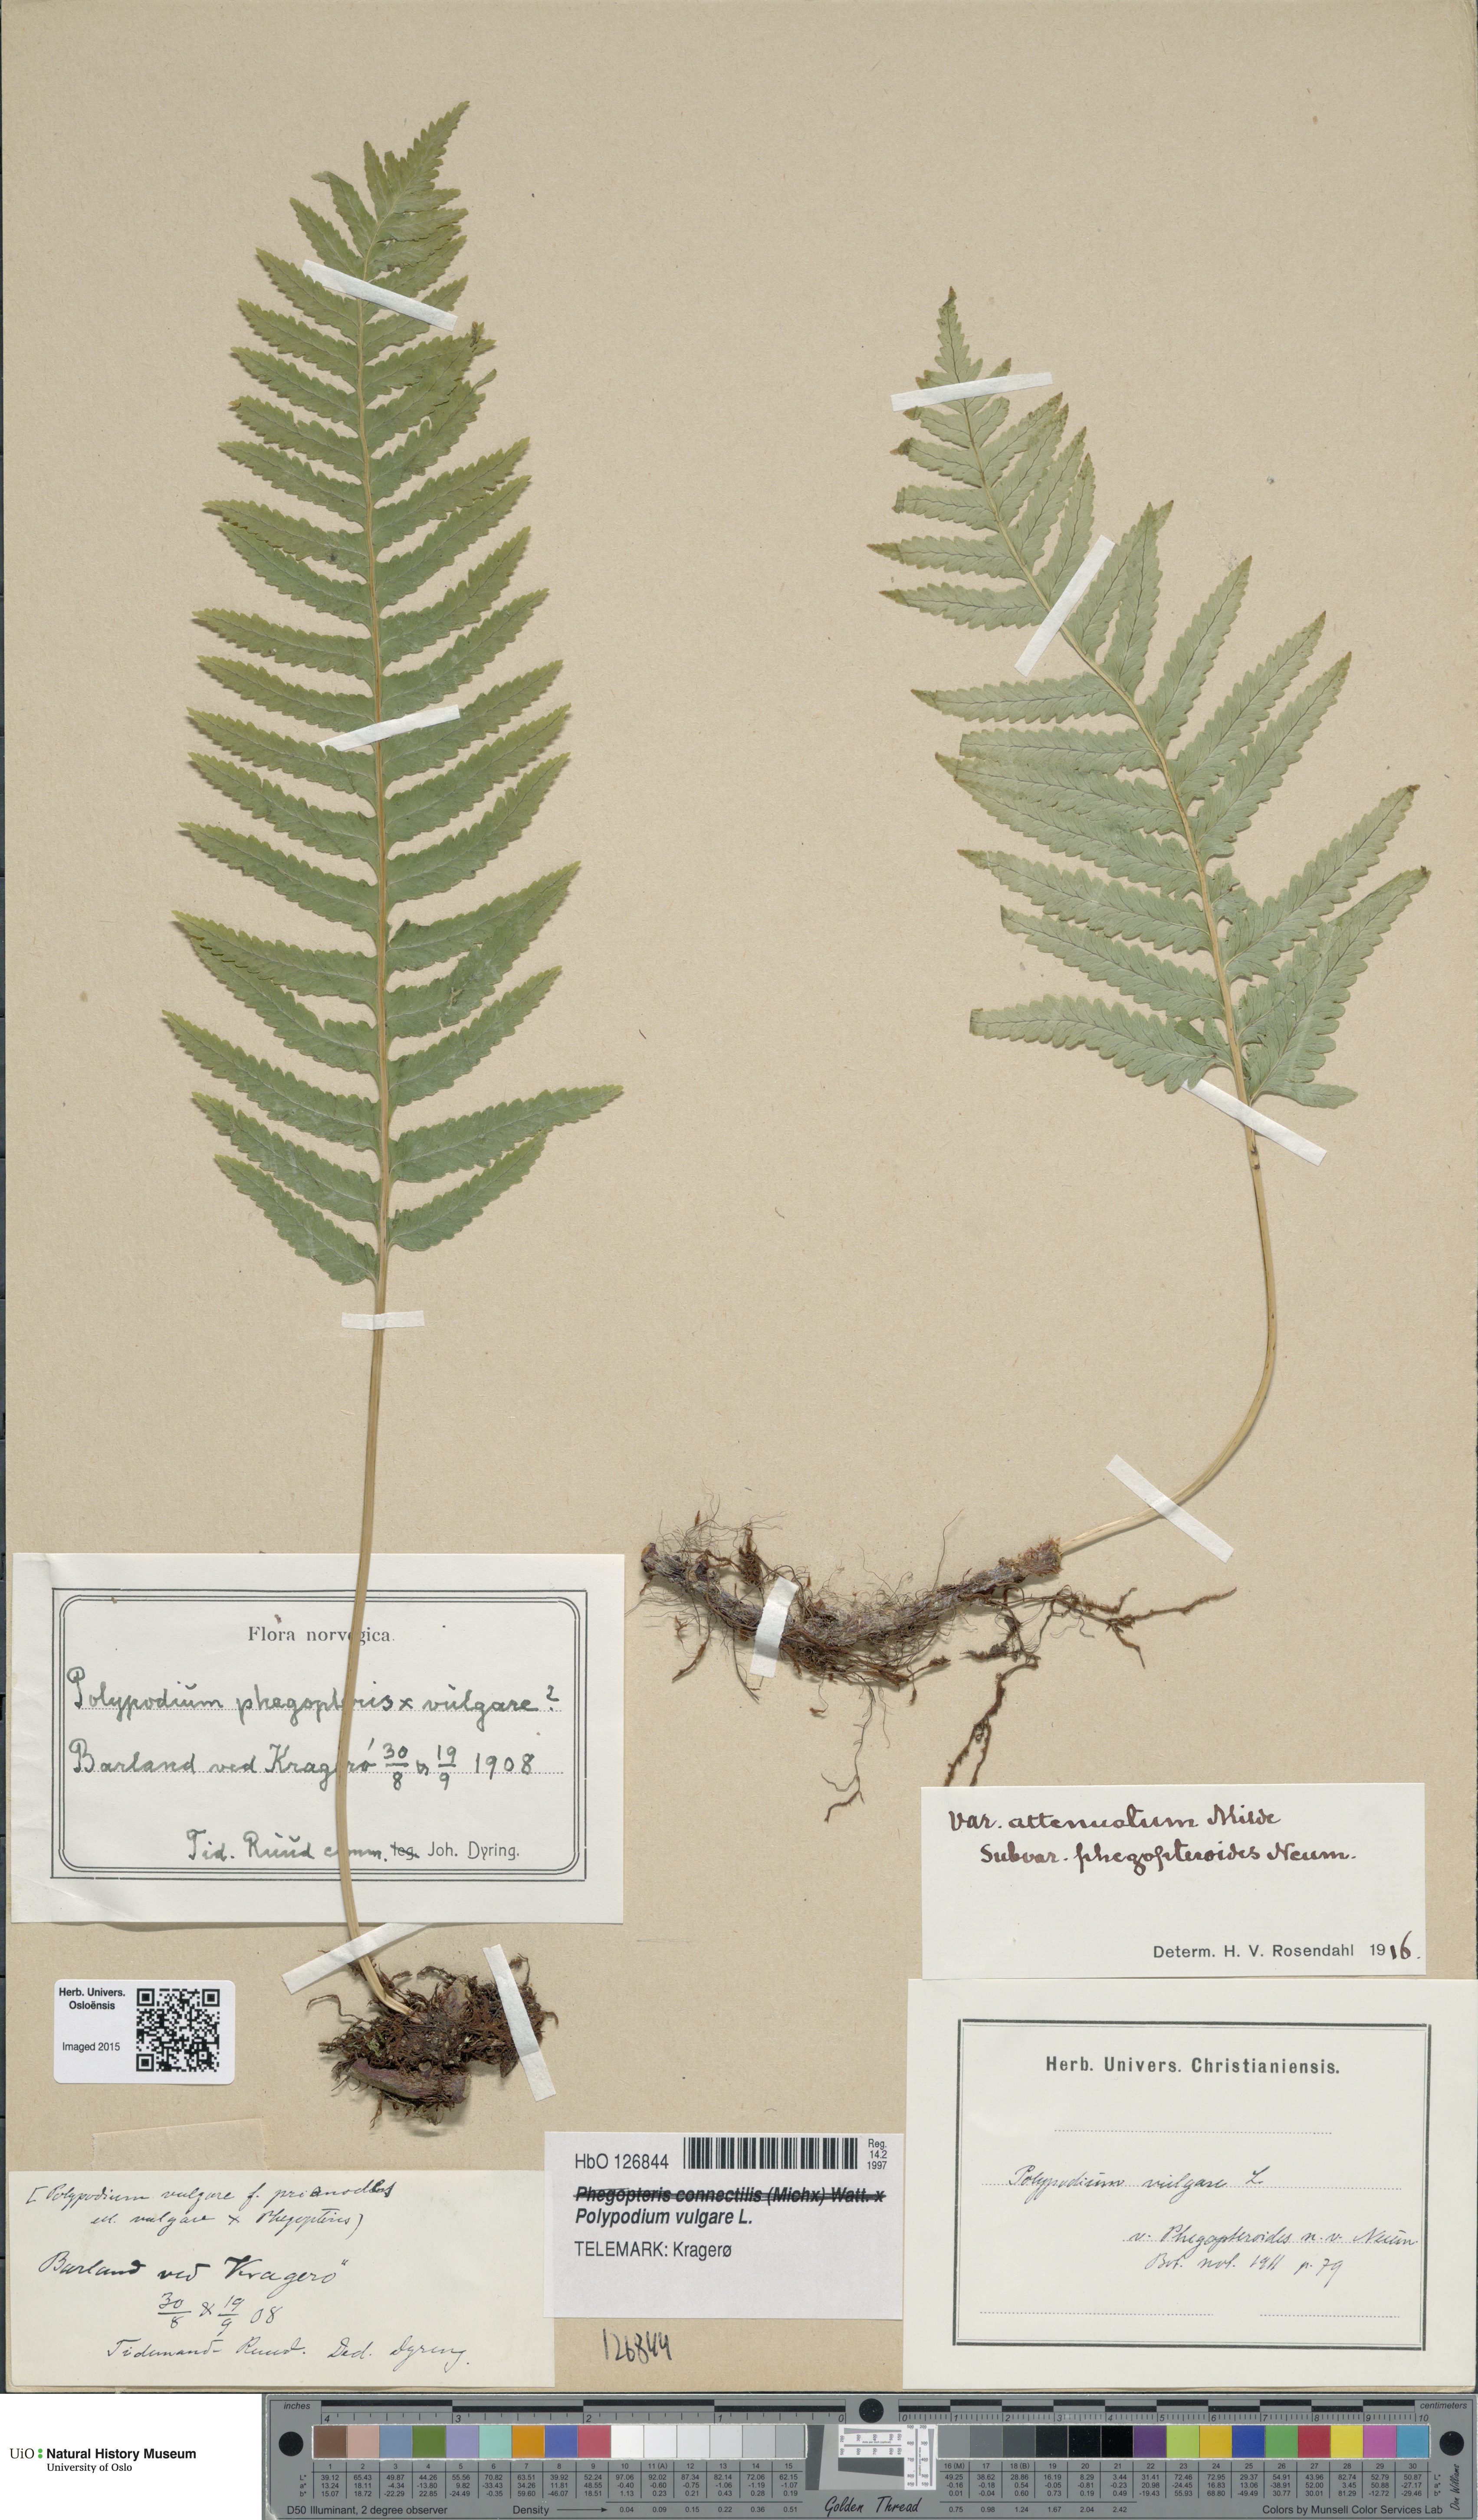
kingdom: Plantae
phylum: Tracheophyta
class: Polypodiopsida
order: Polypodiales
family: Polypodiaceae
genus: Polypodium
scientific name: Polypodium vulgare
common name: Common polypody
